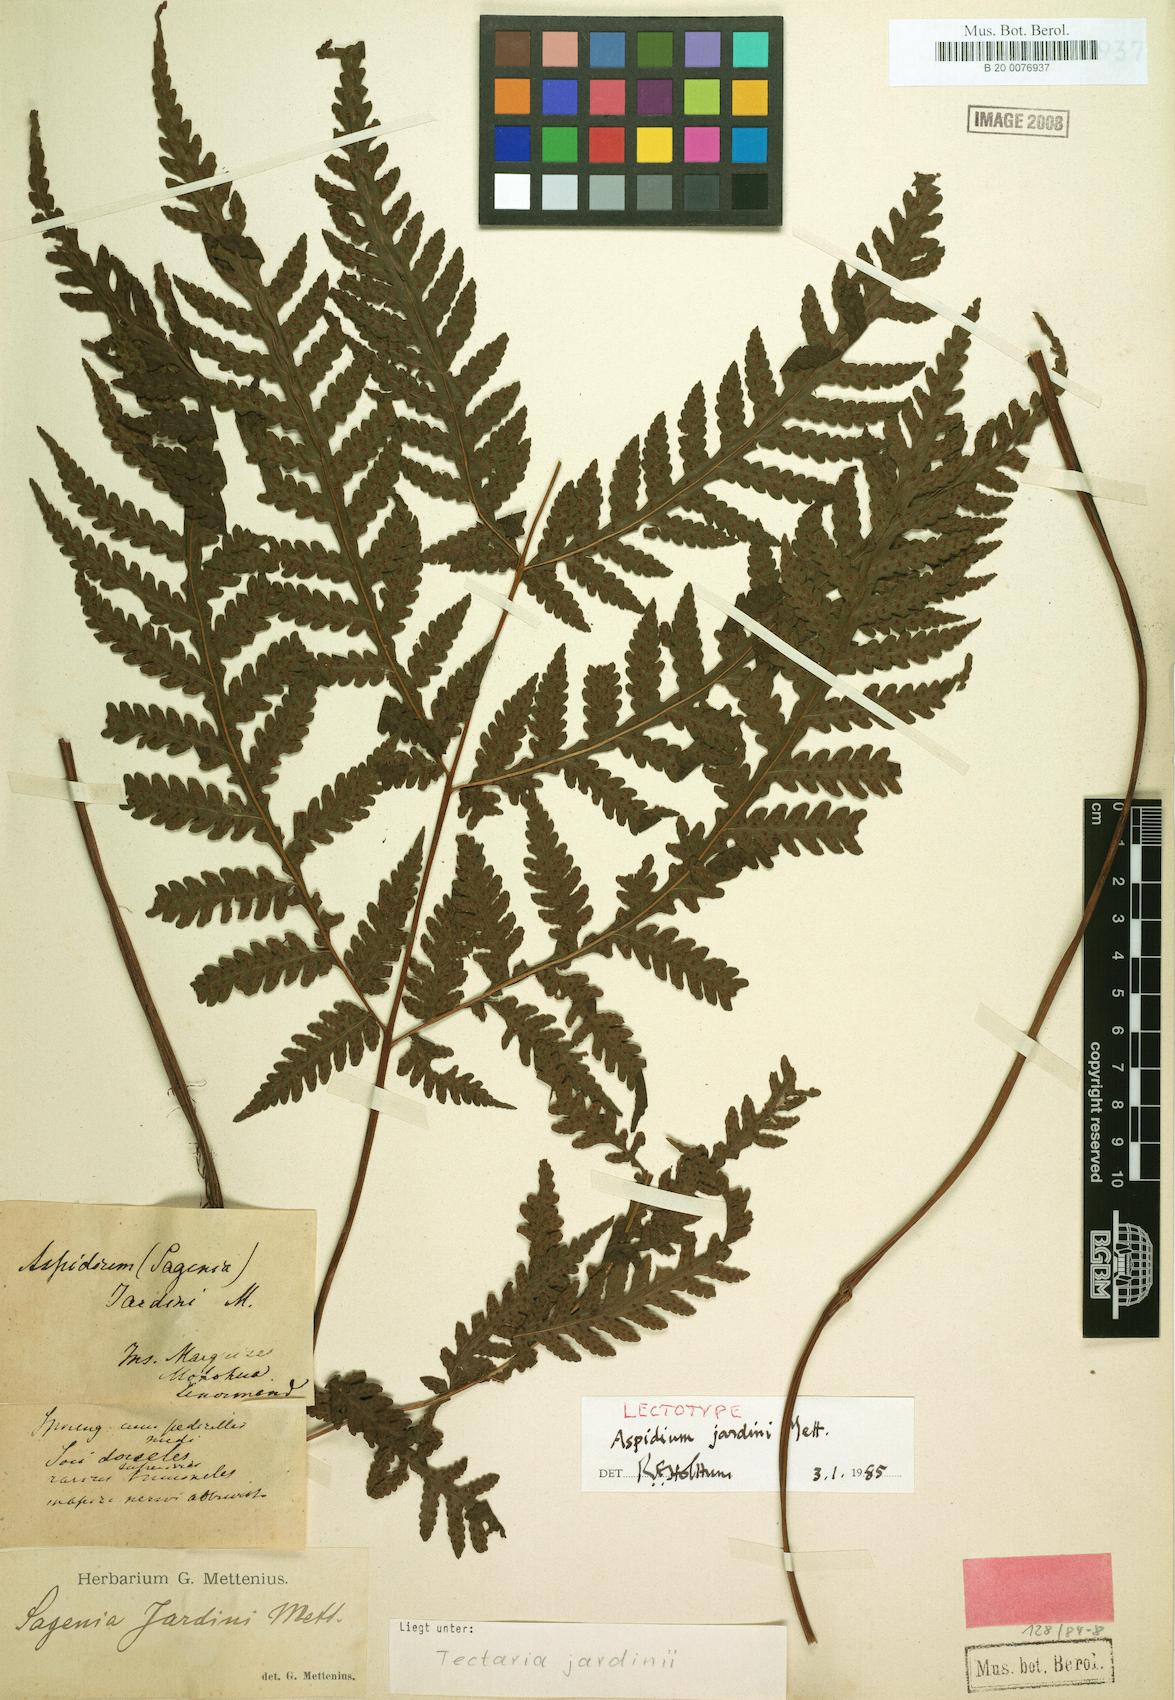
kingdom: Plantae
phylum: Tracheophyta
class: Polypodiopsida
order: Polypodiales
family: Tectariaceae
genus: Tectaria
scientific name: Tectaria jardinii
